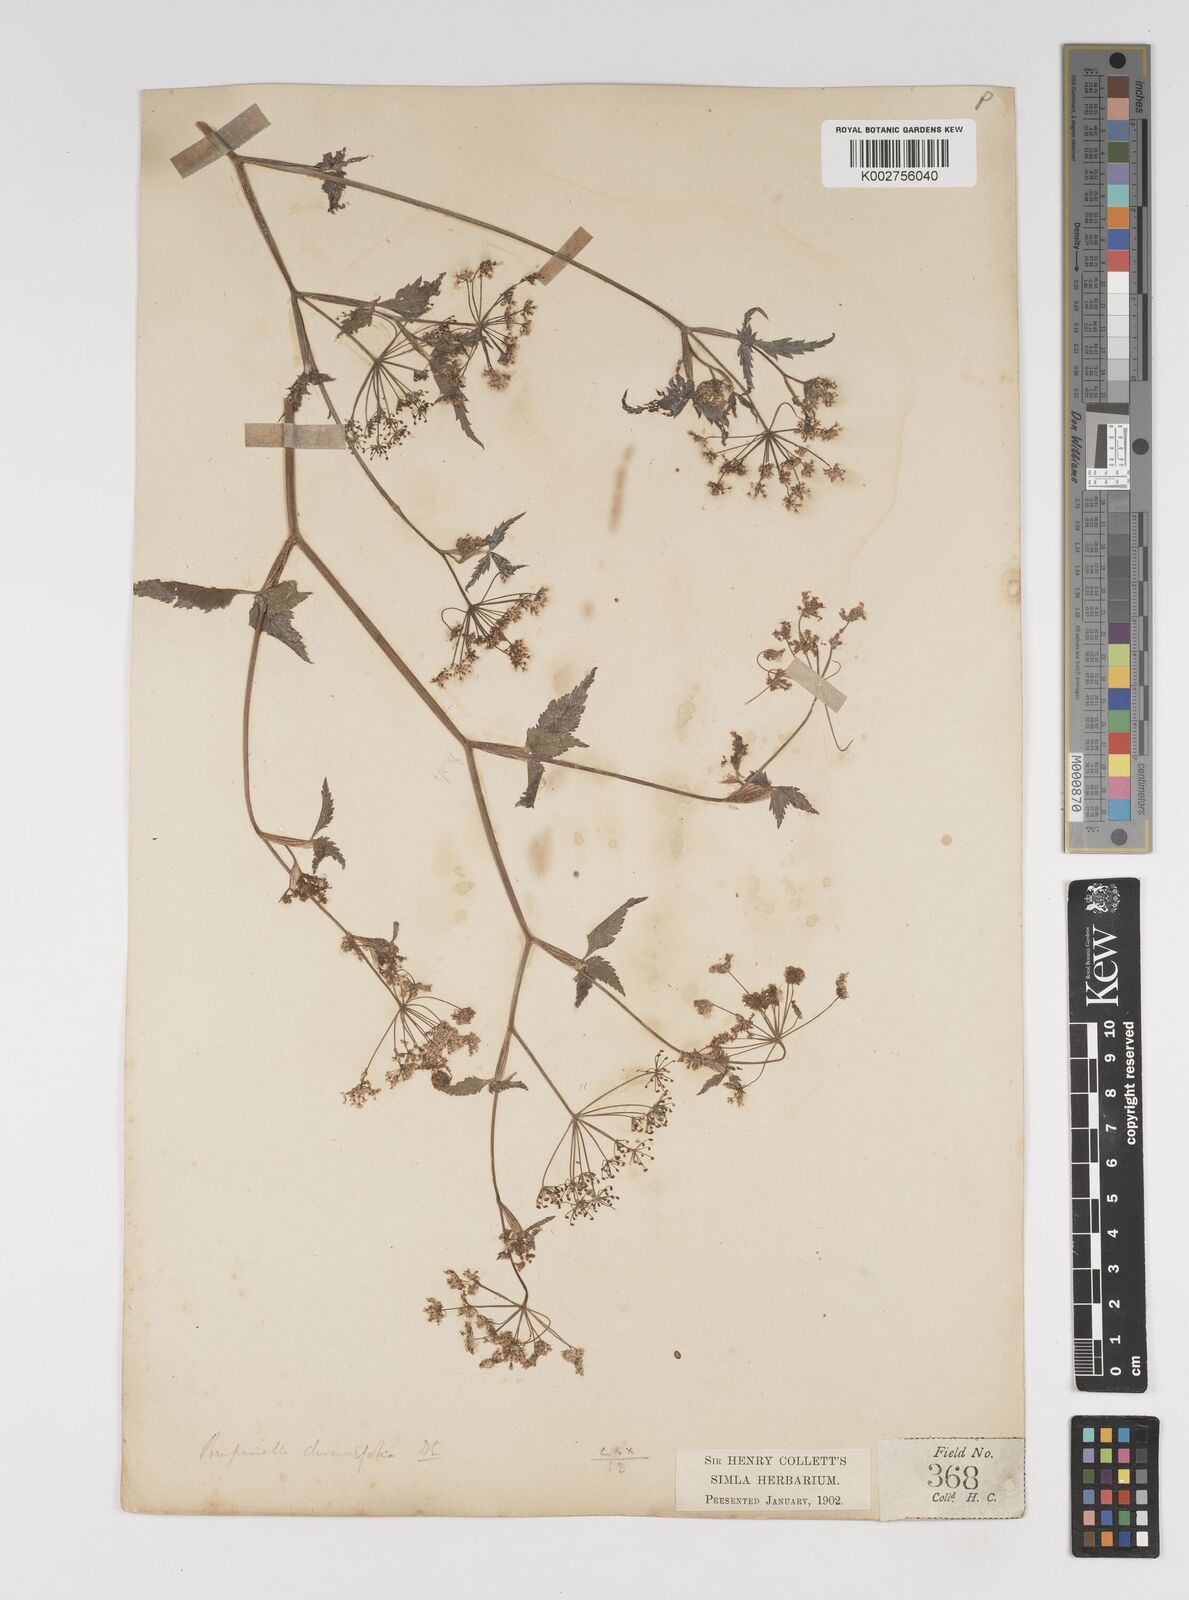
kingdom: Plantae
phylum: Tracheophyta
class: Magnoliopsida
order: Apiales
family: Apiaceae
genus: Pimpinella
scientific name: Pimpinella diversifolia
